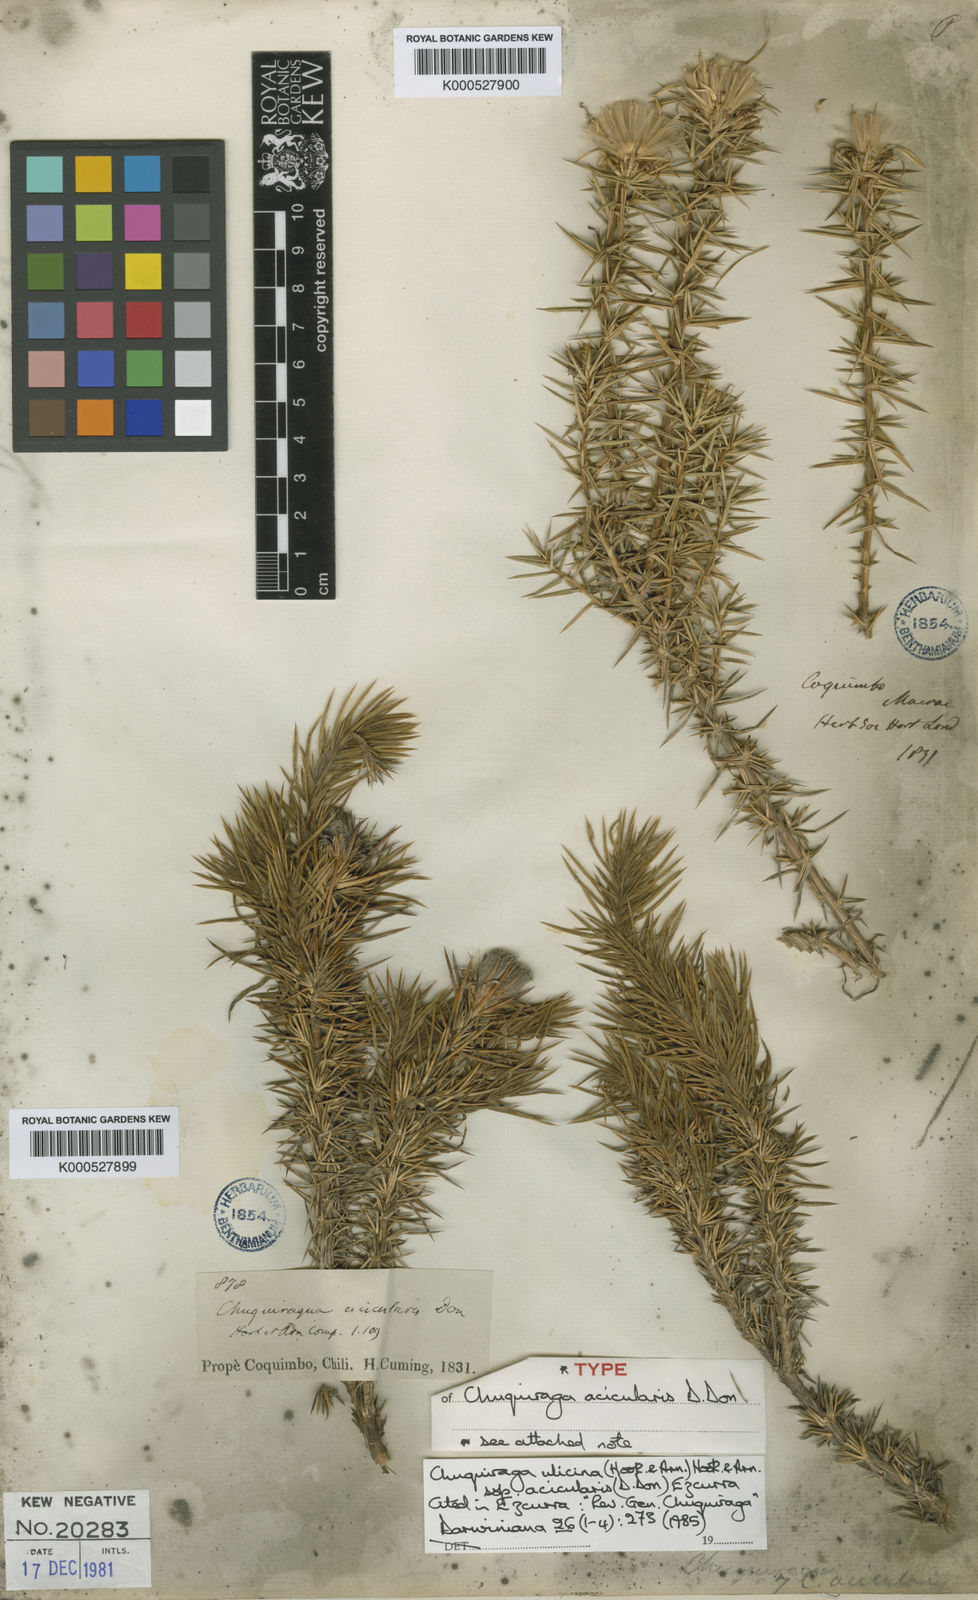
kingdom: Plantae
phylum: Tracheophyta
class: Magnoliopsida
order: Asterales
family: Asteraceae
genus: Chuquiraga
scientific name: Chuquiraga ulicina
